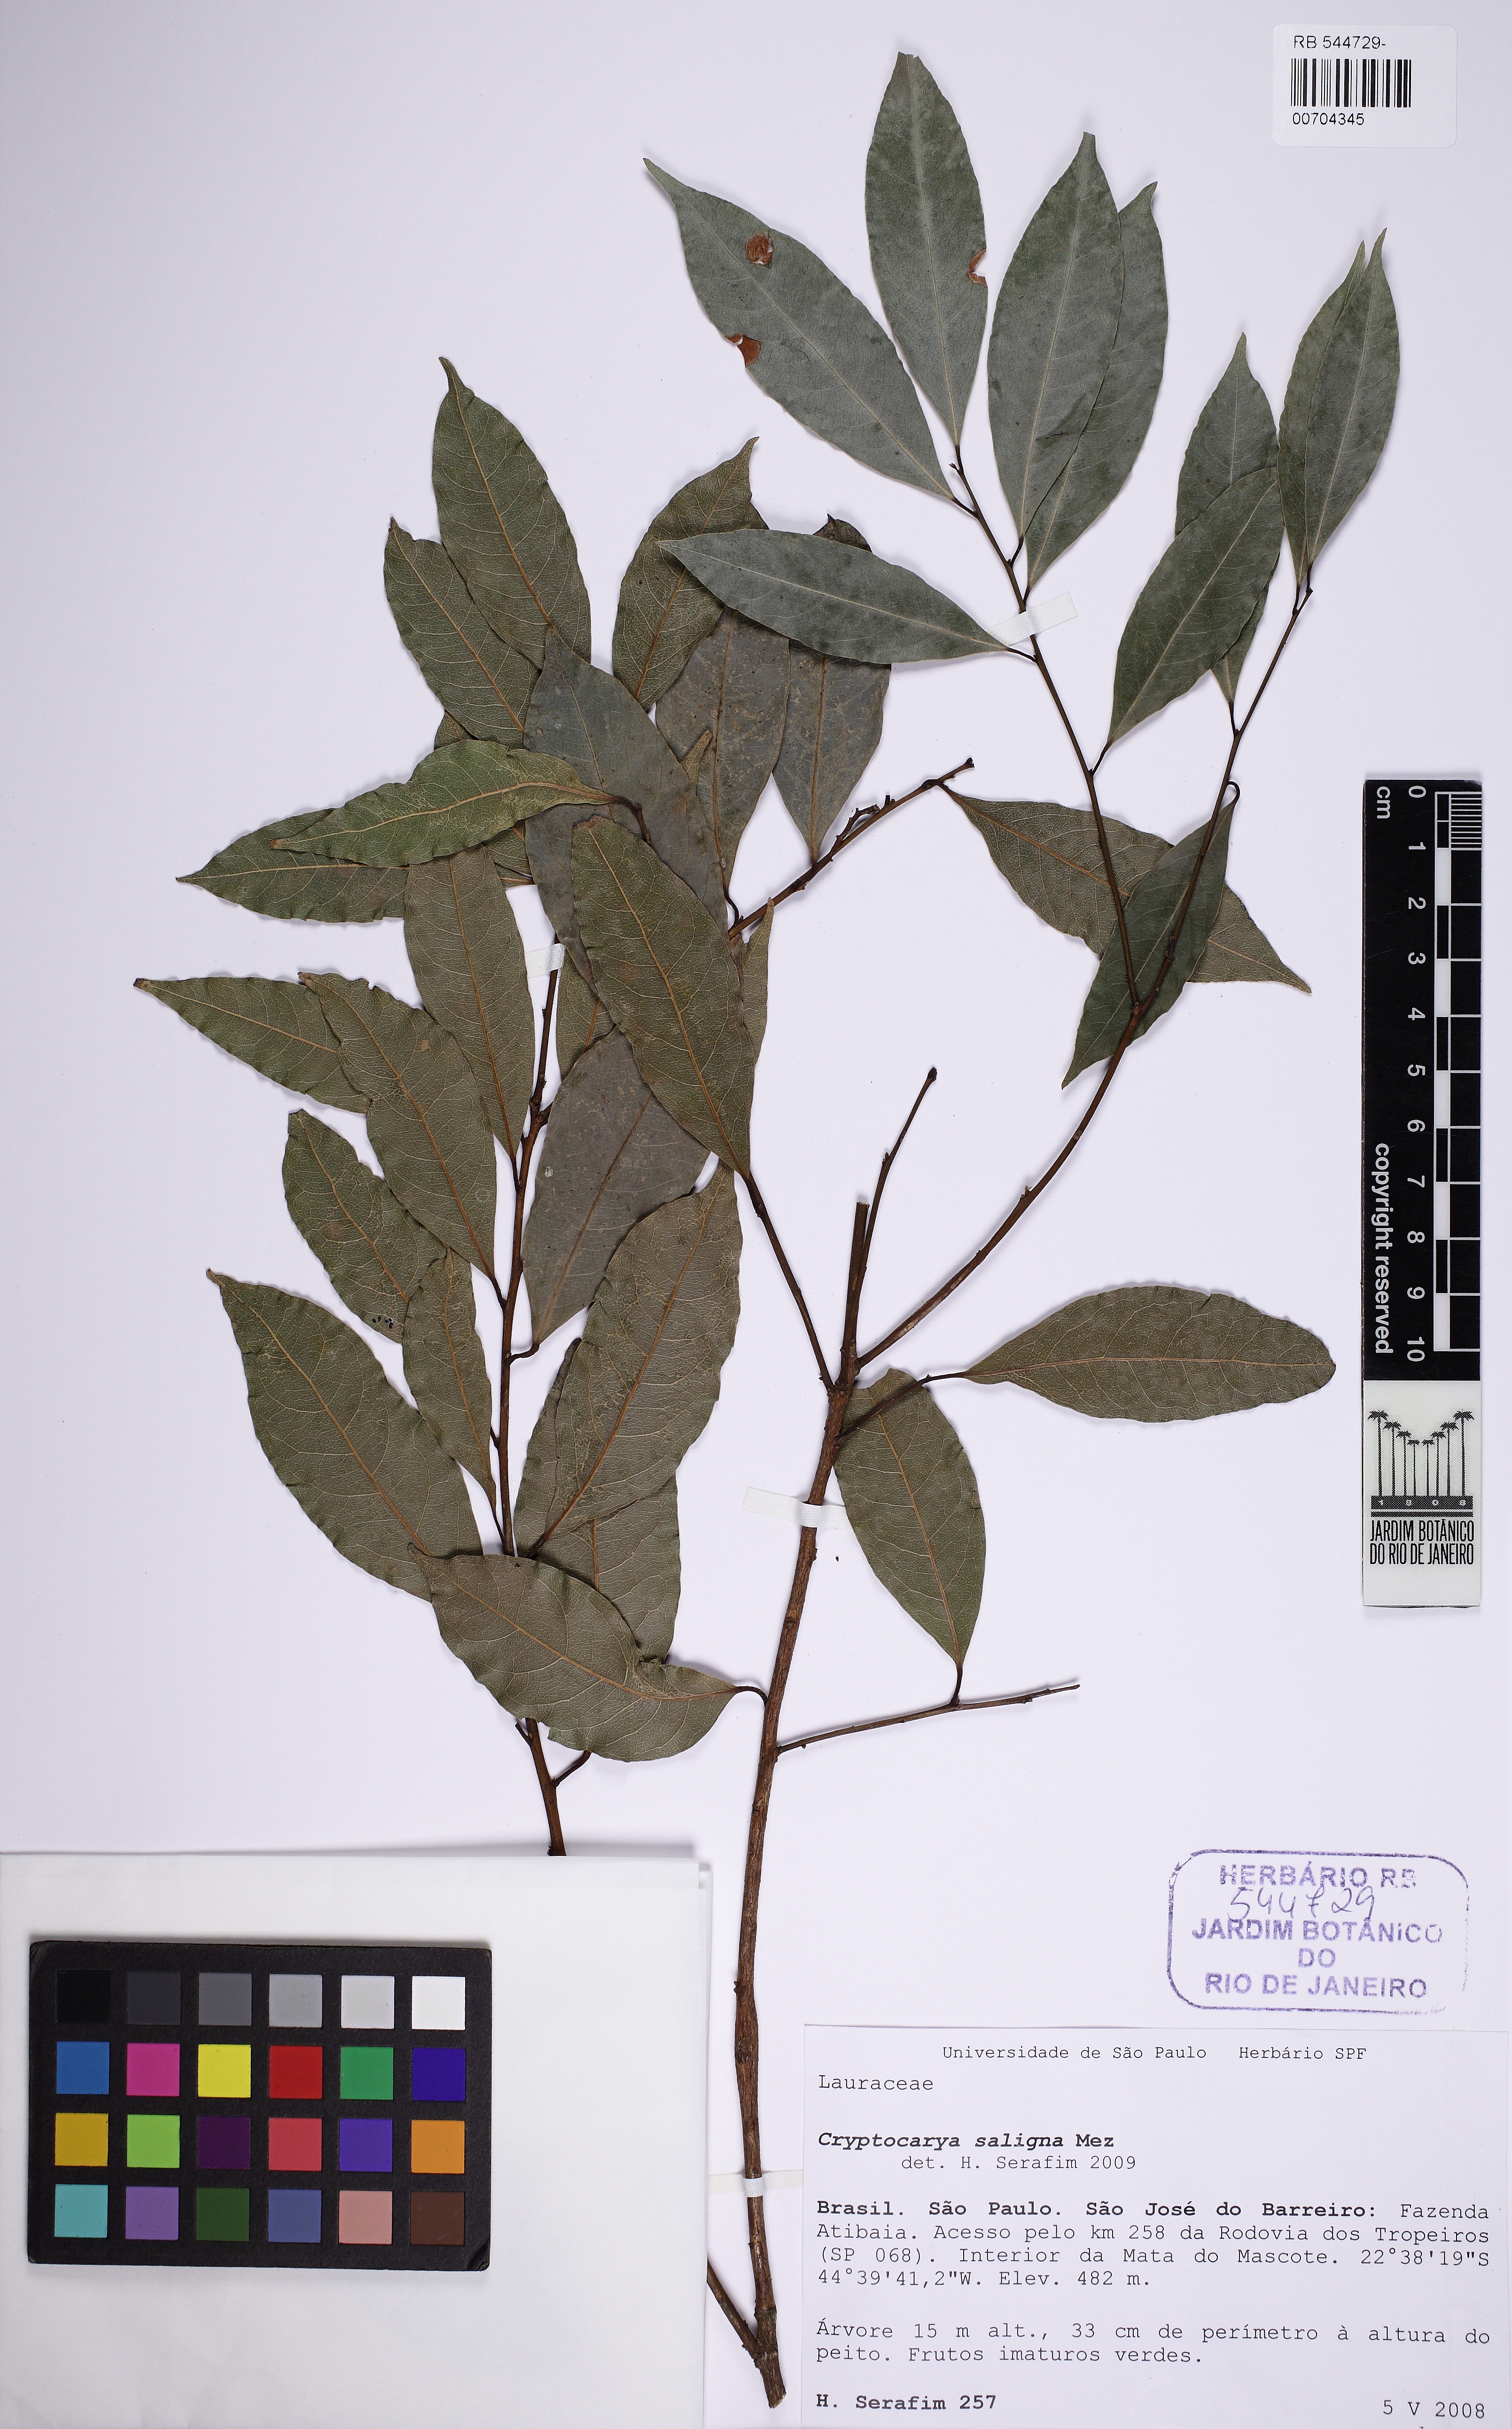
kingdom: Plantae
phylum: Tracheophyta
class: Magnoliopsida
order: Laurales
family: Lauraceae
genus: Cryptocarya
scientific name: Cryptocarya saligna
